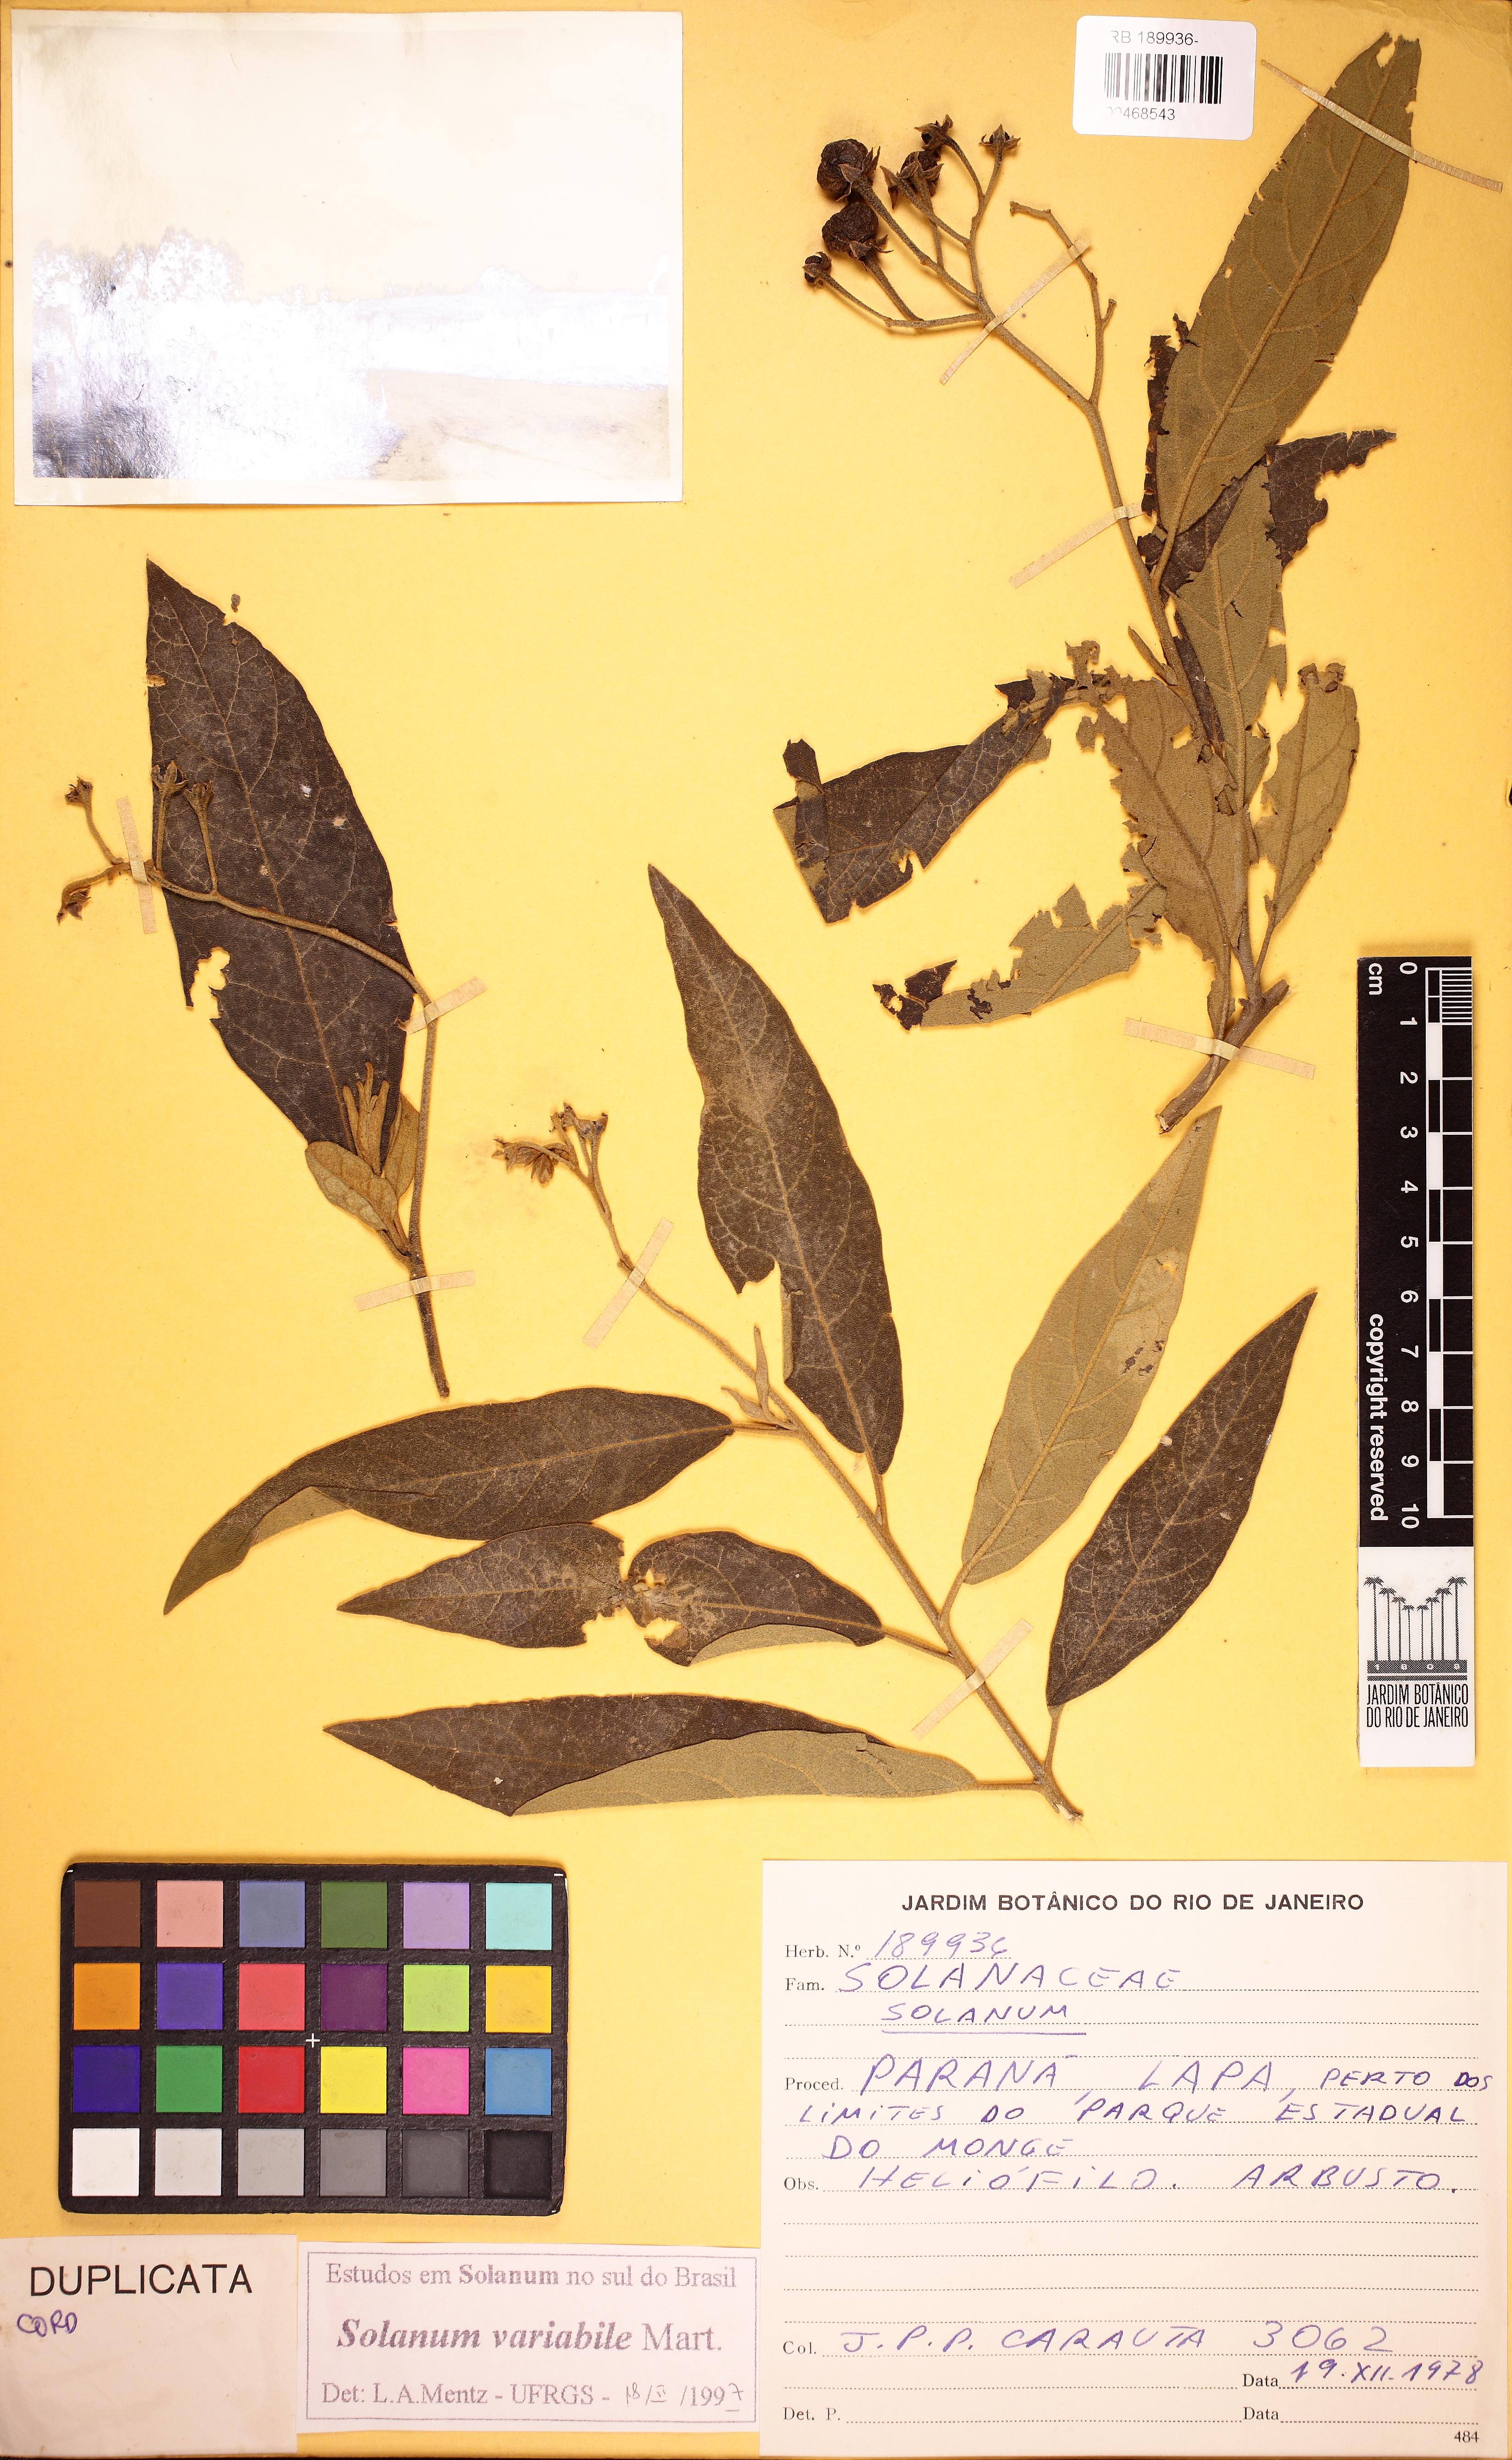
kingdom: Plantae
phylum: Tracheophyta
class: Magnoliopsida
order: Solanales
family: Solanaceae
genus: Solanum
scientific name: Solanum variabile
